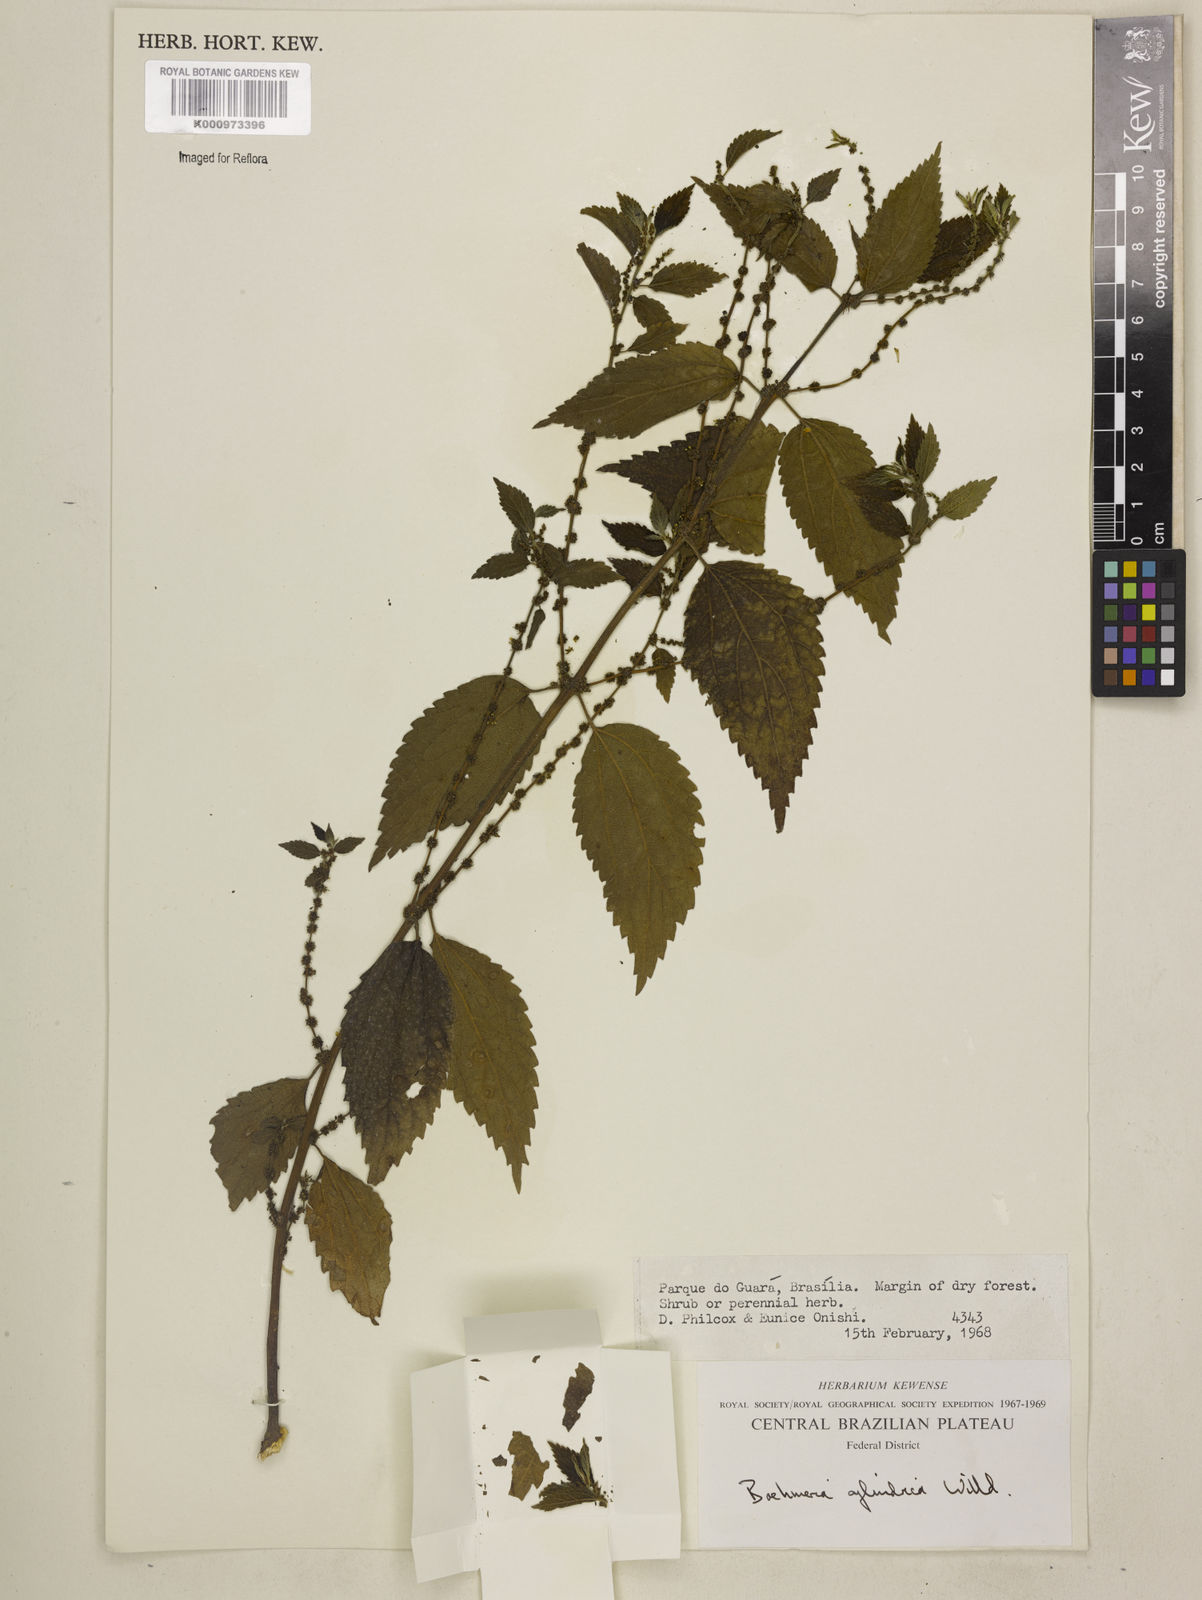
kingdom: Plantae
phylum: Tracheophyta
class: Magnoliopsida
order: Rosales
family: Urticaceae
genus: Boehmeria
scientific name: Boehmeria cylindrica
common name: Bog-hemp
